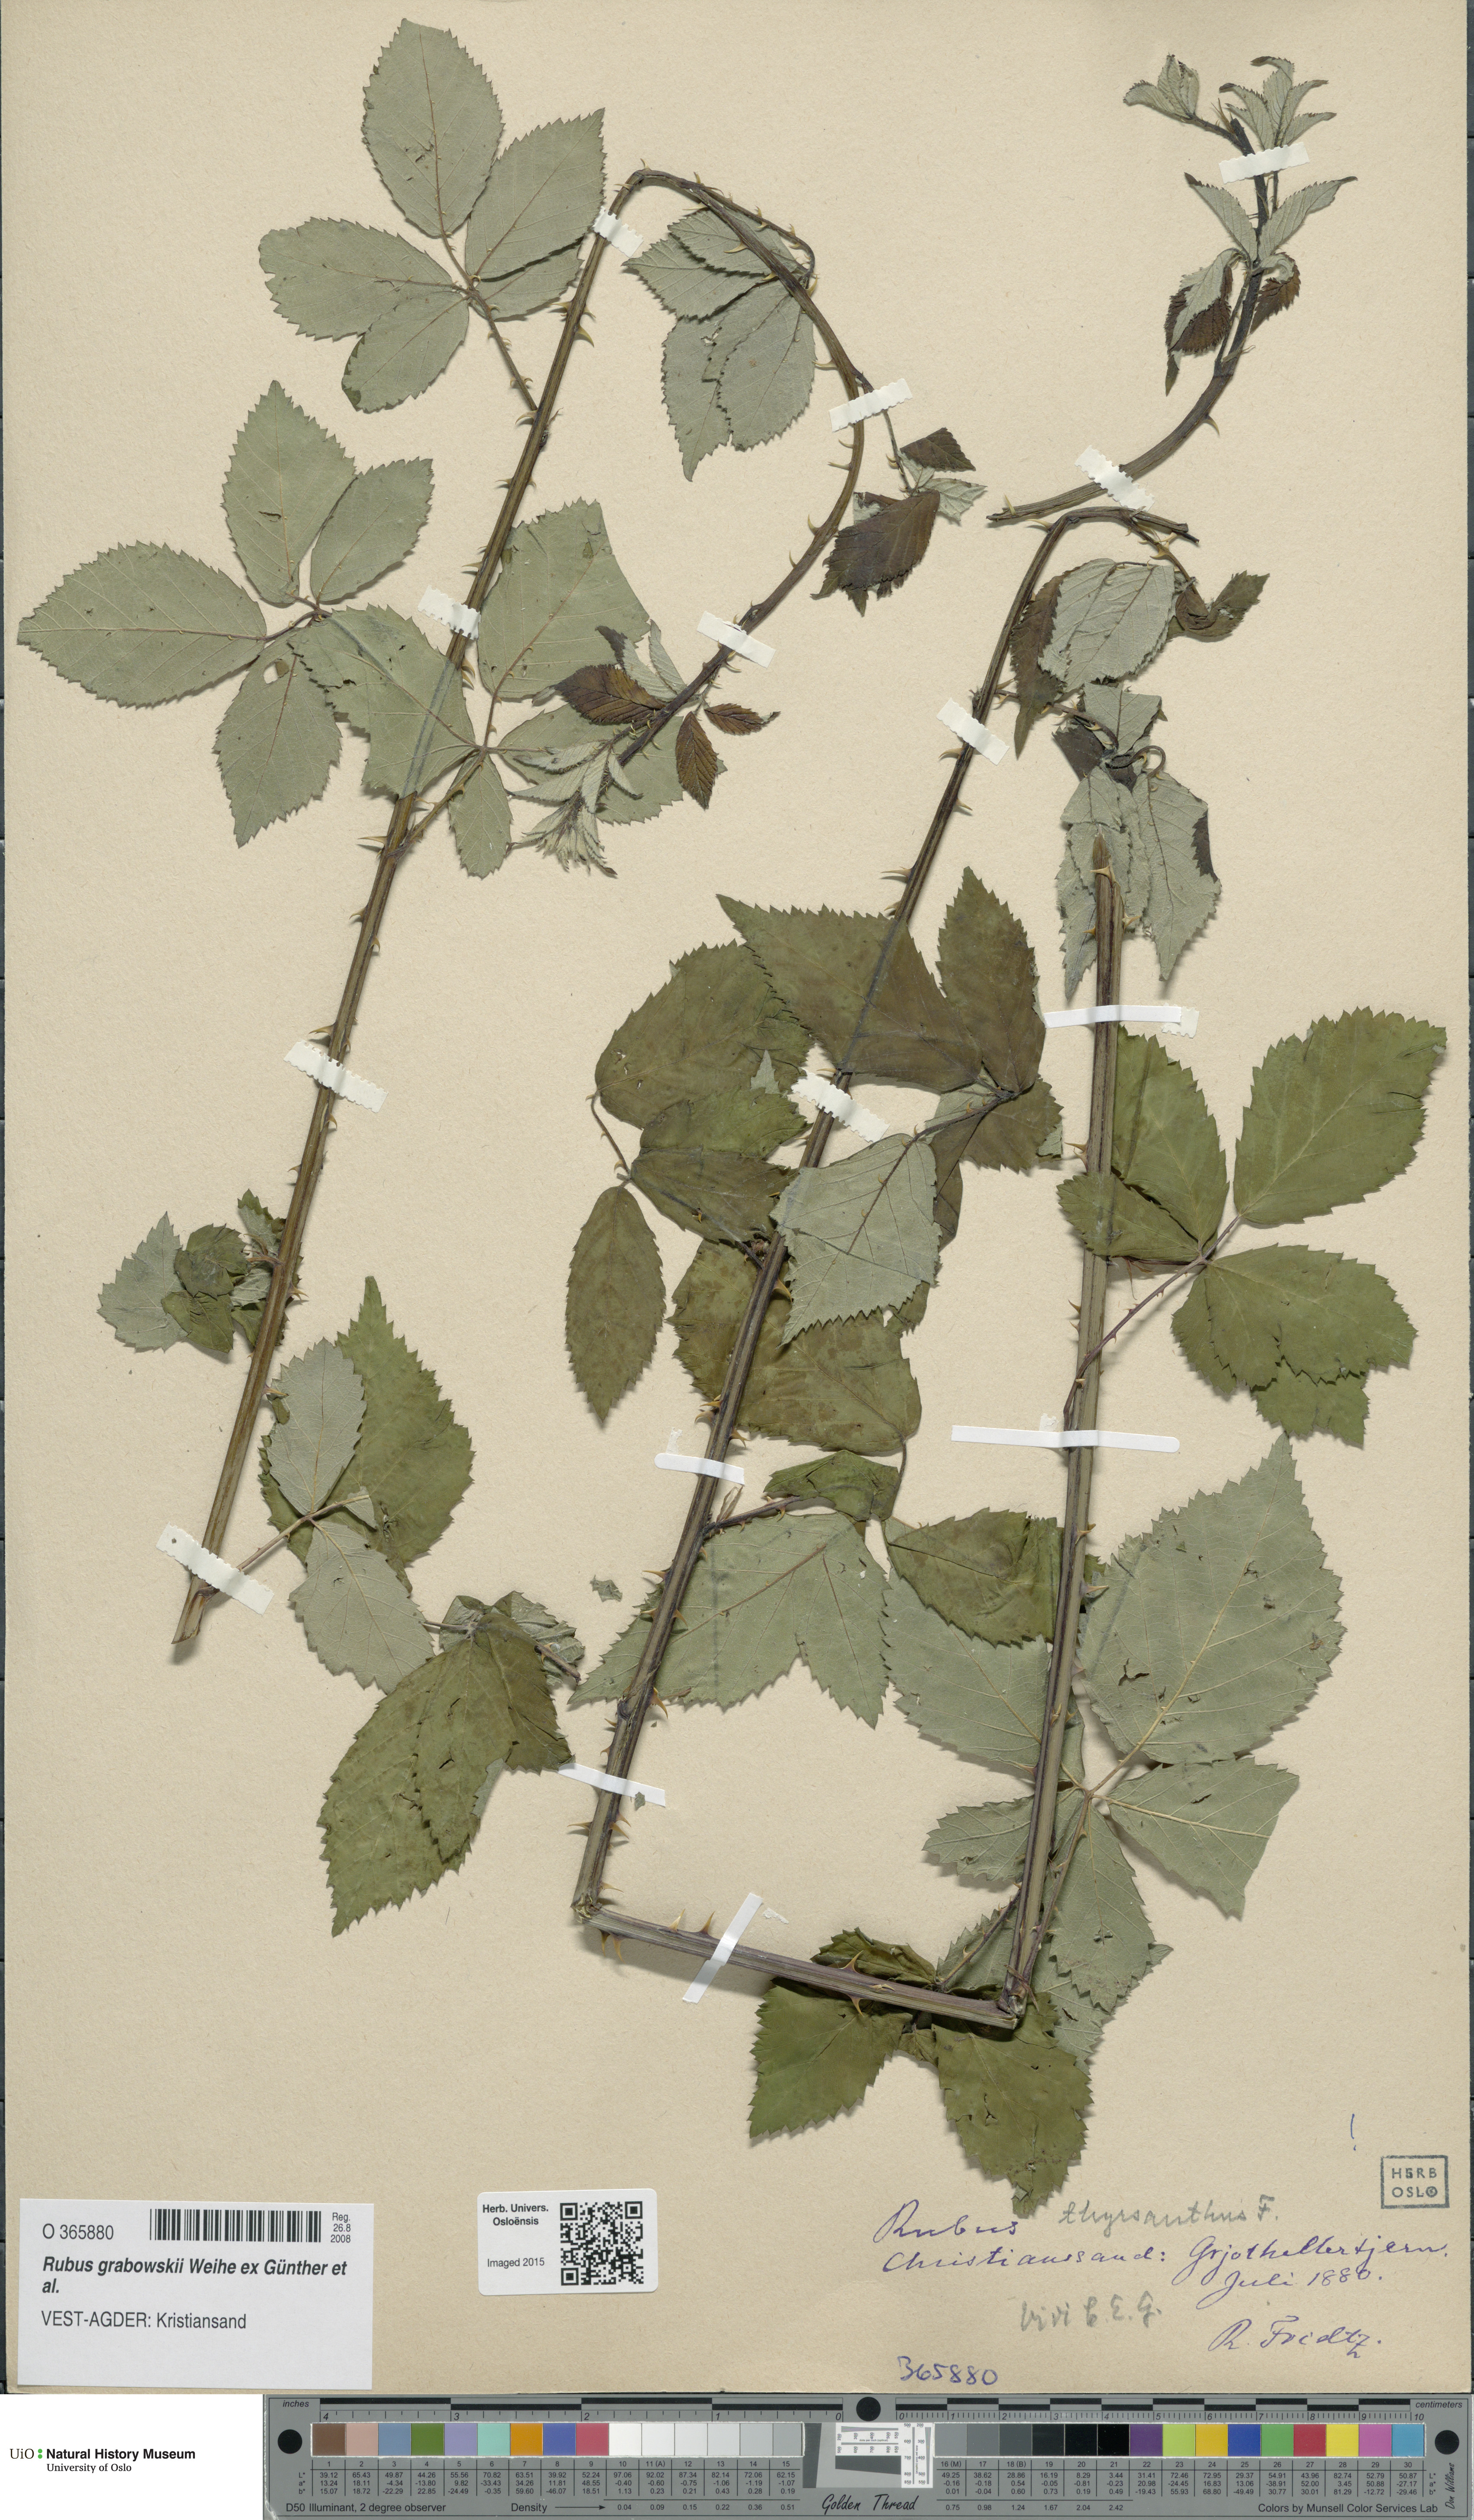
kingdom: Plantae
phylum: Tracheophyta
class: Magnoliopsida
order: Rosales
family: Rosaceae
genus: Rubus
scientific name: Rubus grabowskii
